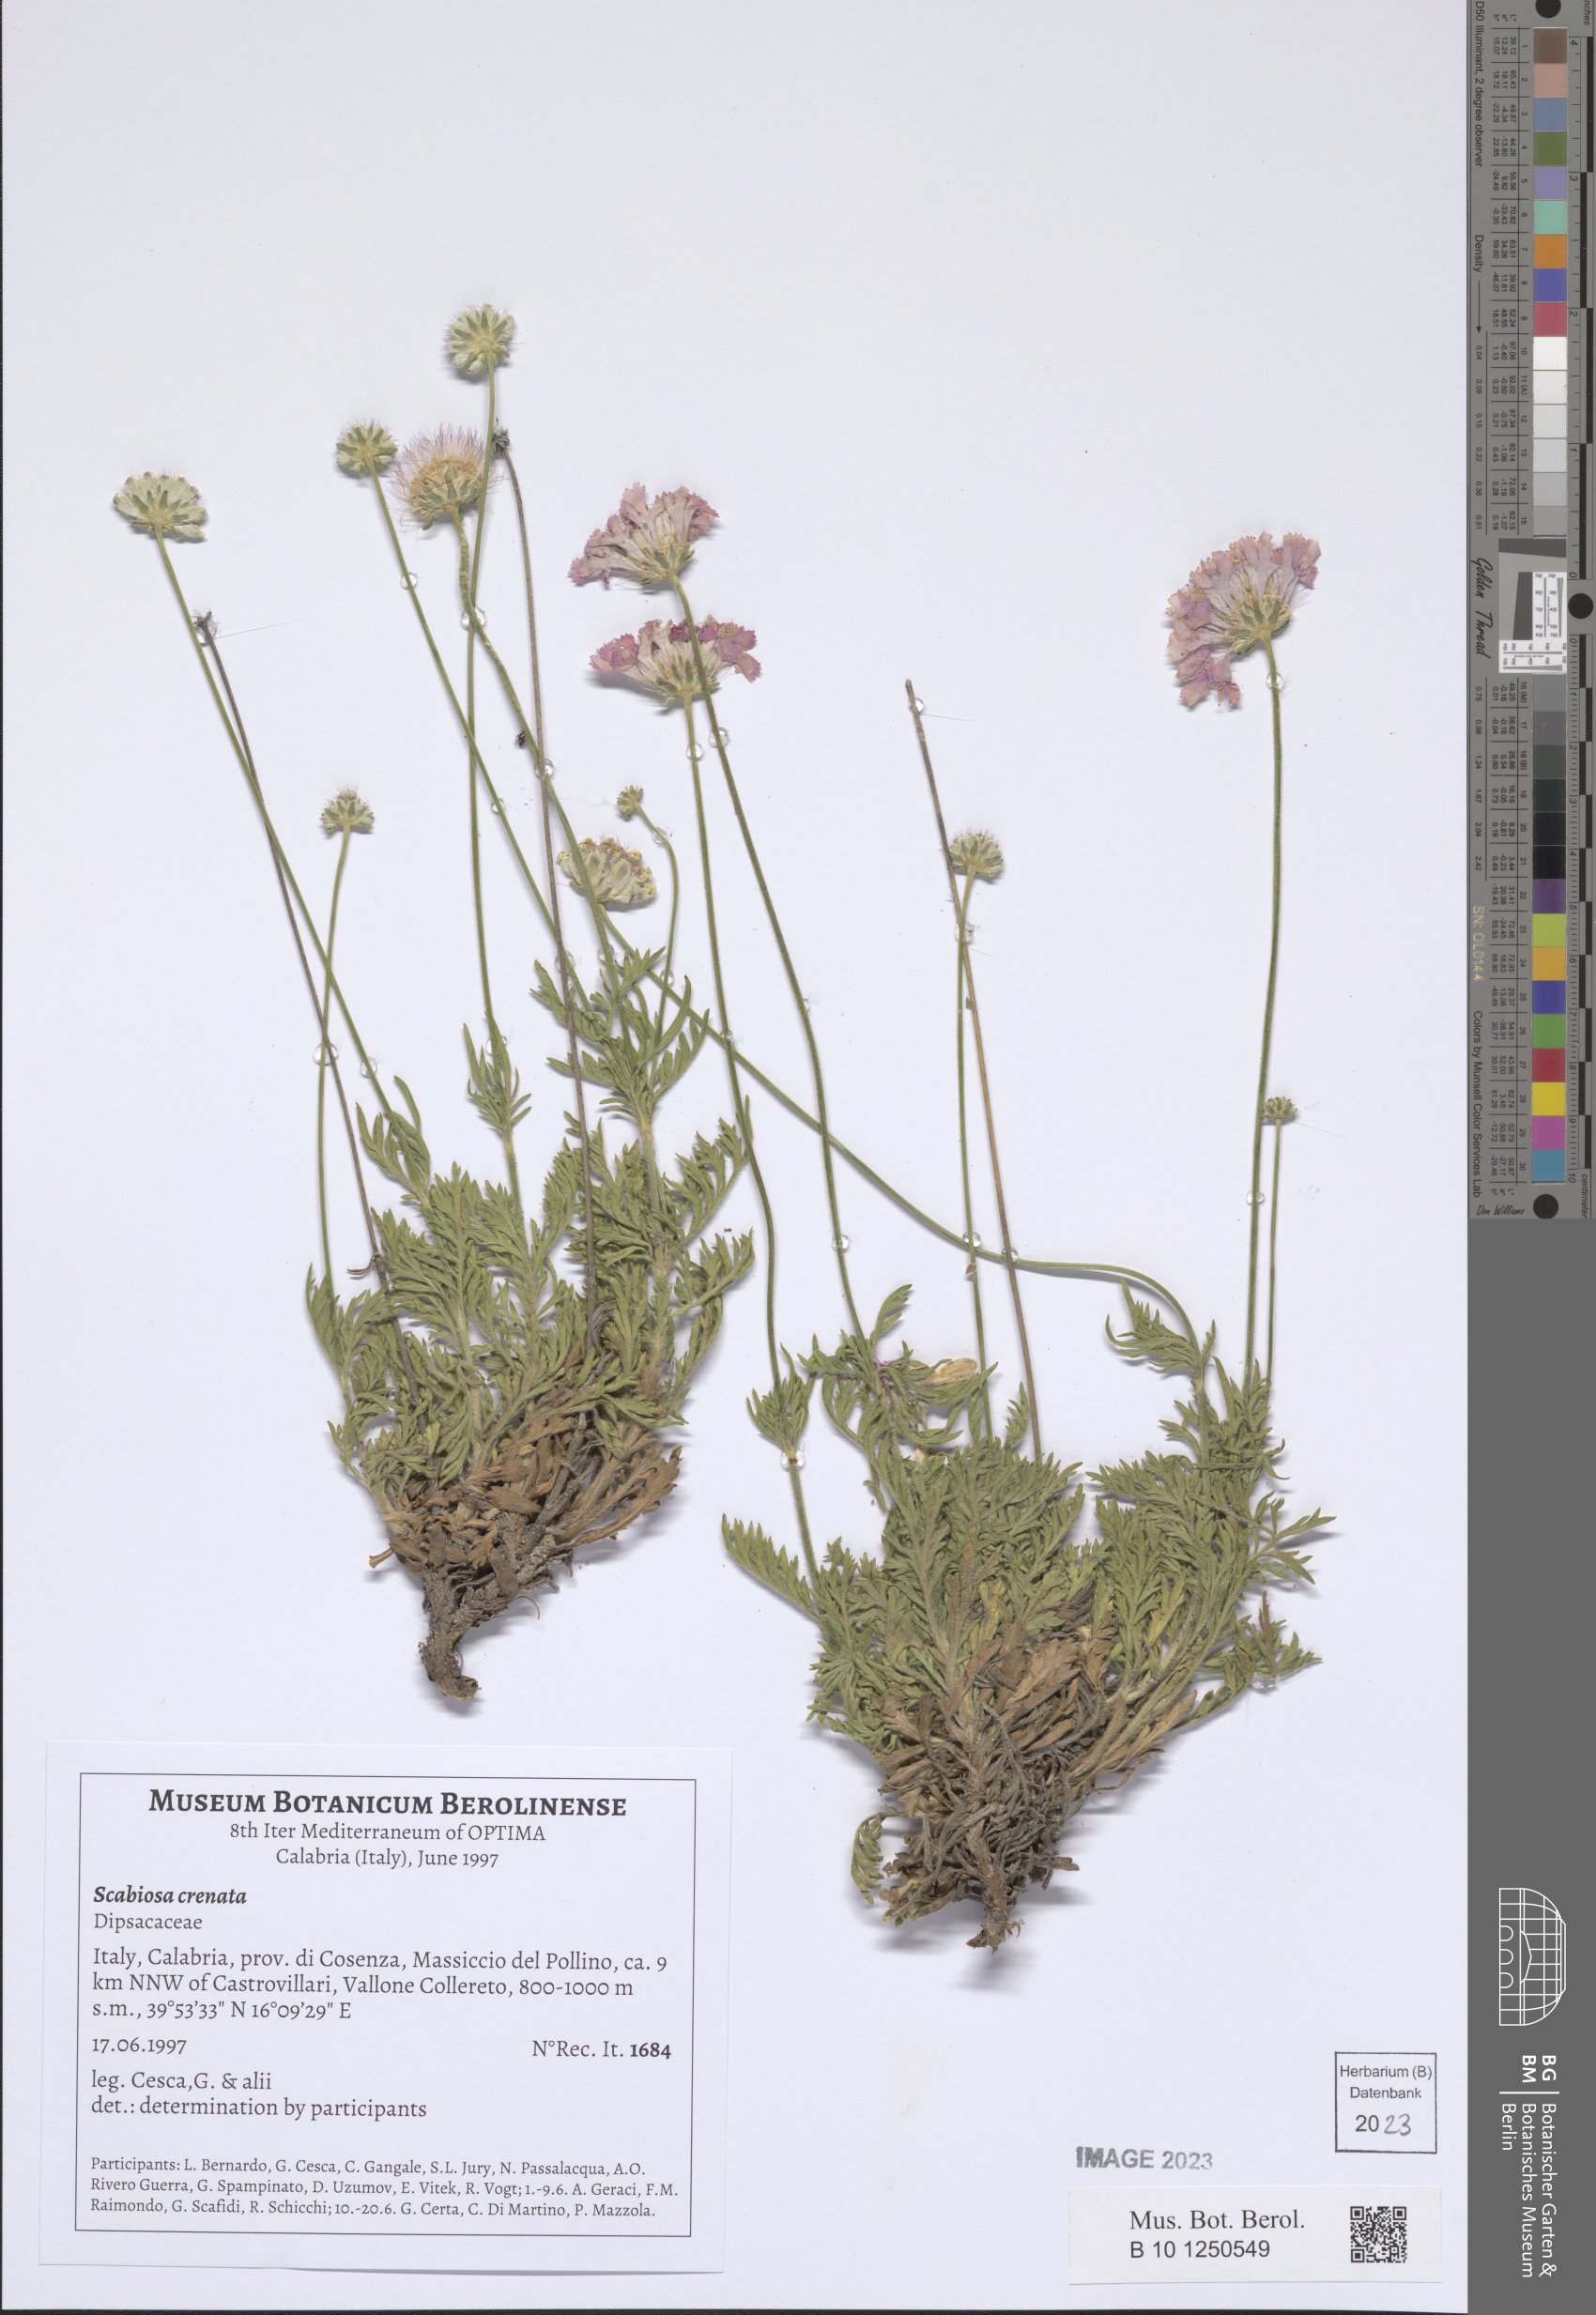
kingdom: Plantae
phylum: Tracheophyta
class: Magnoliopsida
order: Dipsacales
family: Caprifoliaceae
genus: Lomelosia
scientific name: Lomelosia crenata
